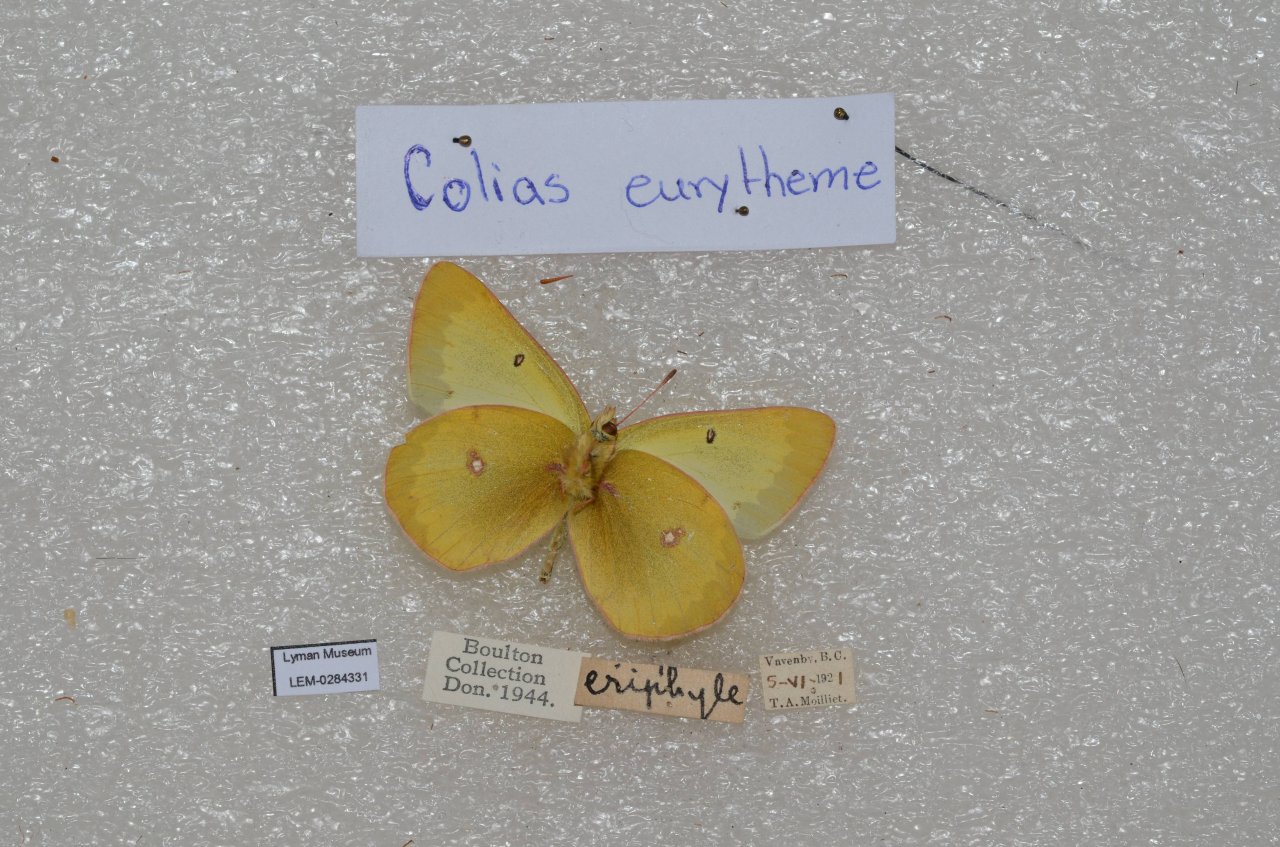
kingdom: Animalia
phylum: Arthropoda
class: Insecta
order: Lepidoptera
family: Pieridae
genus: Colias
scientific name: Colias eurytheme
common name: Orange Sulphur
